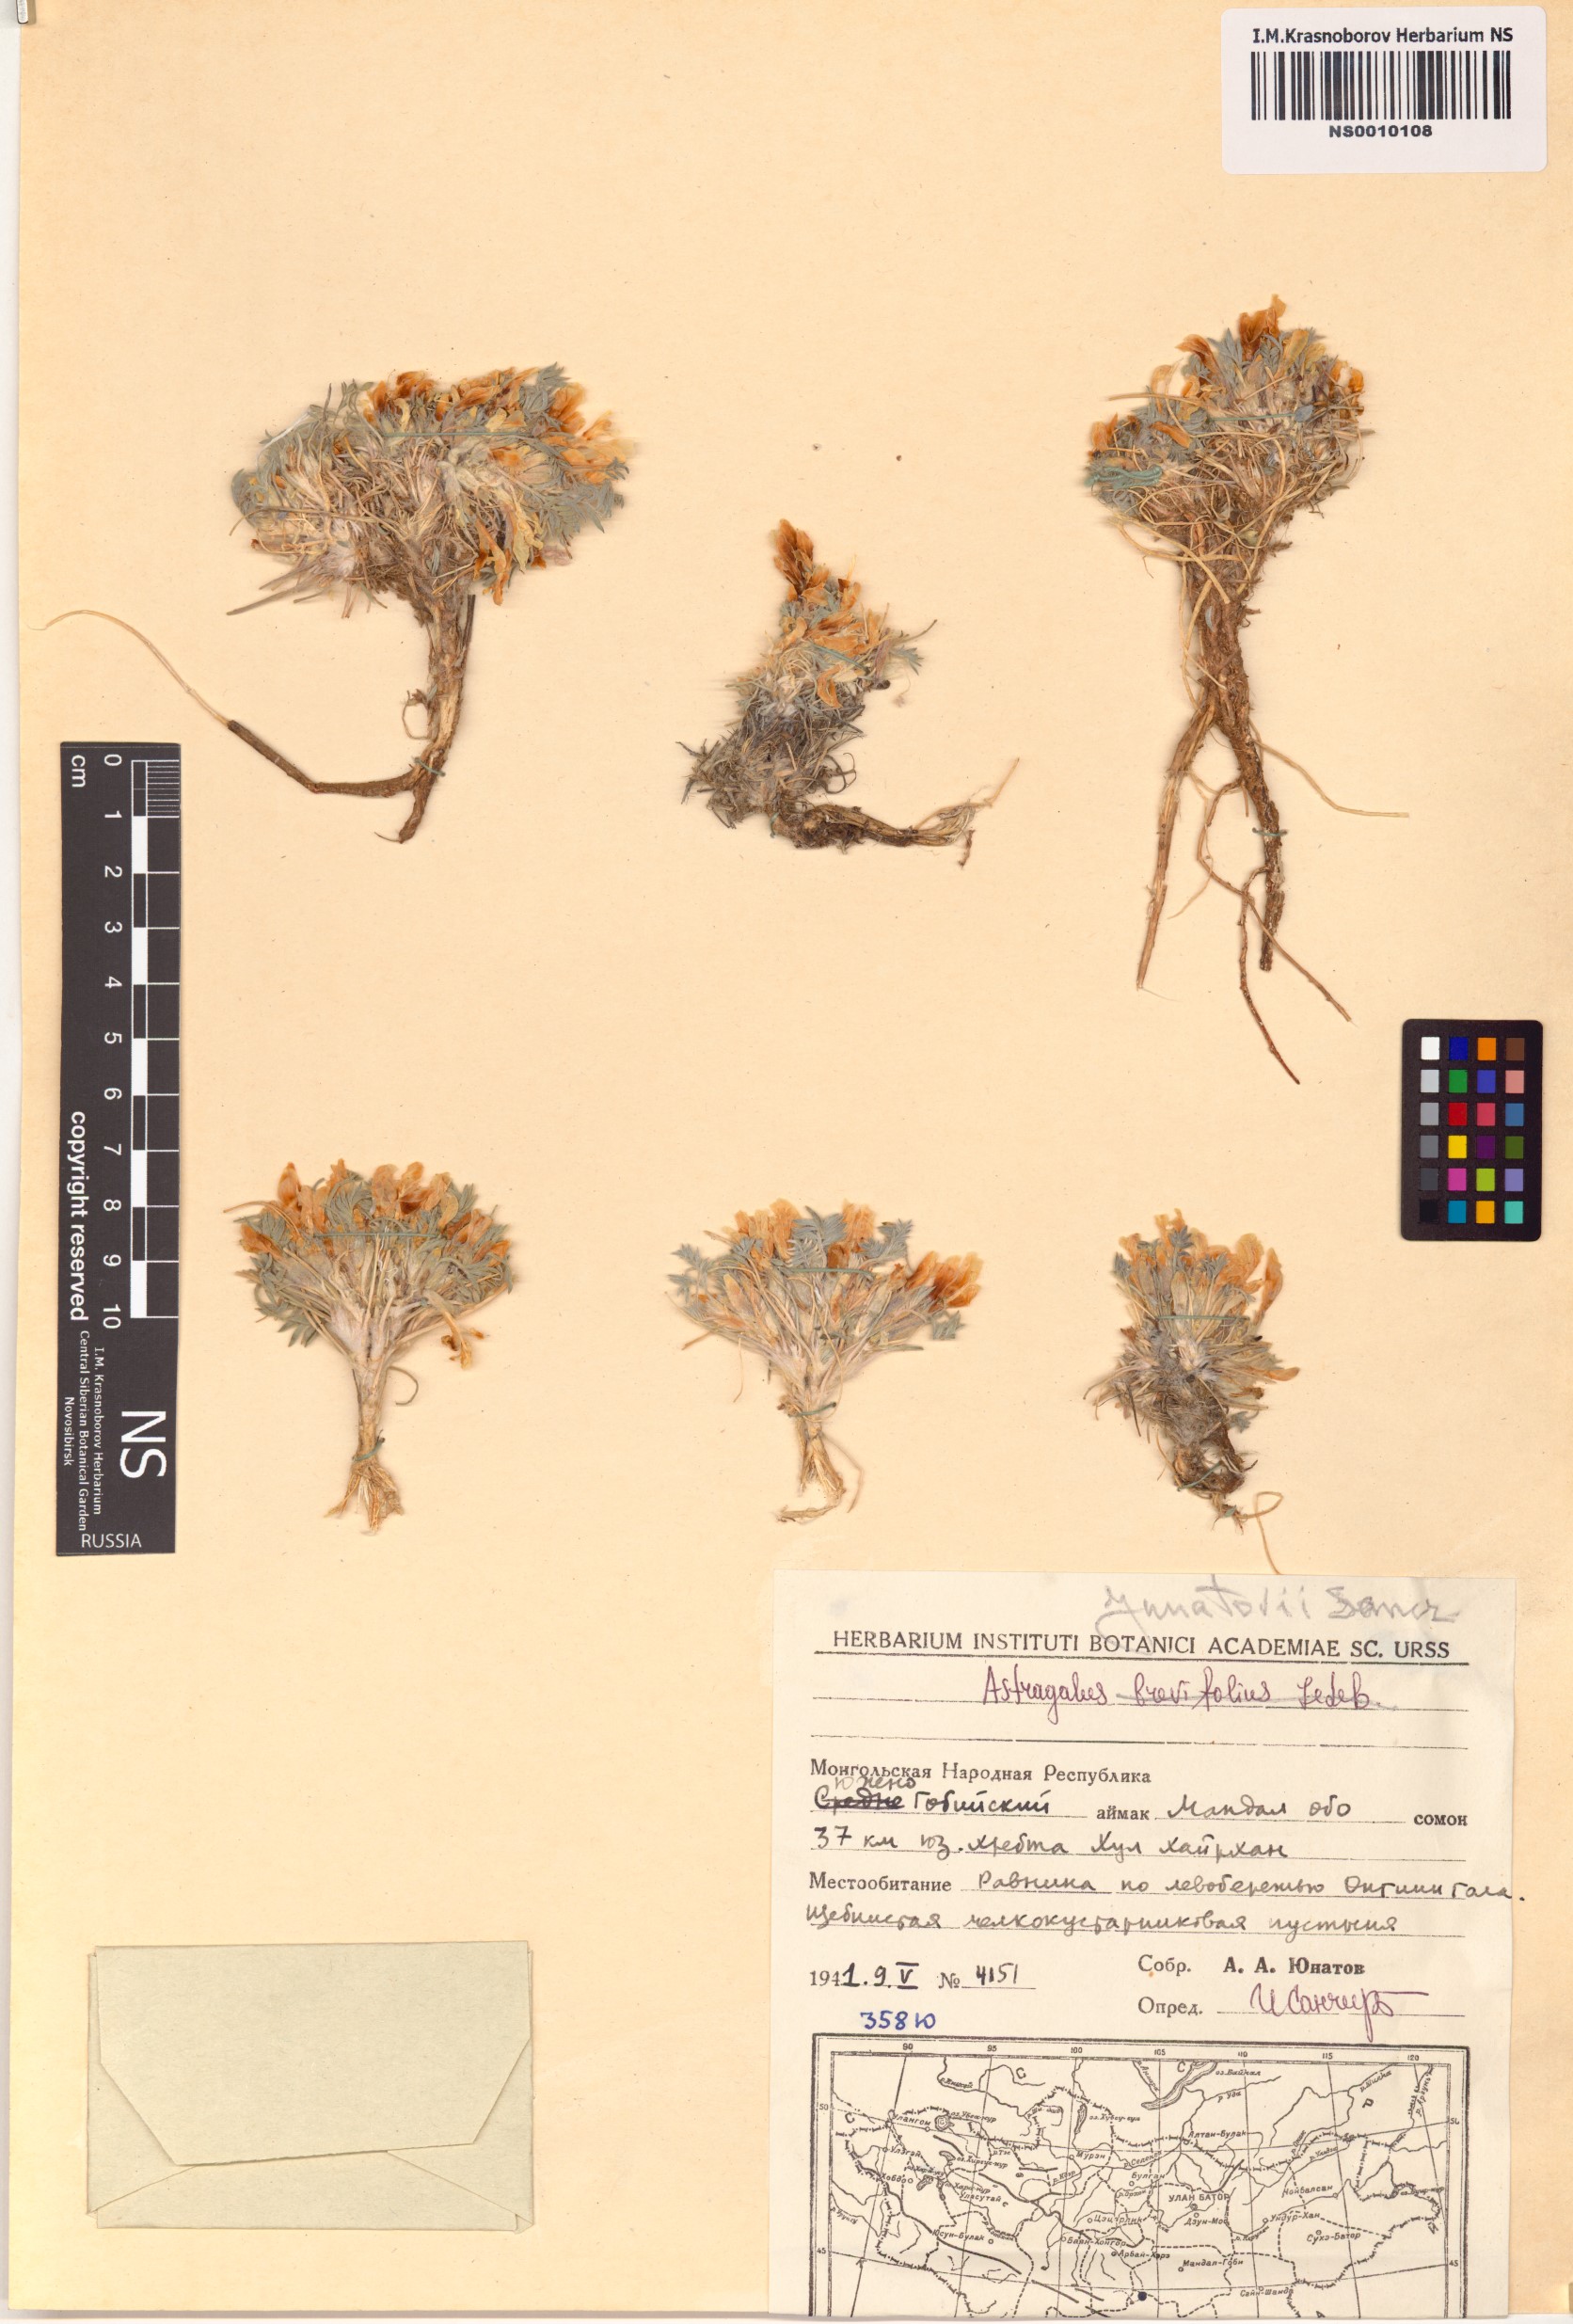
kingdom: Plantae
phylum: Tracheophyta
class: Magnoliopsida
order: Fabales
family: Fabaceae
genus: Astragalus
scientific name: Astragalus junatovii
